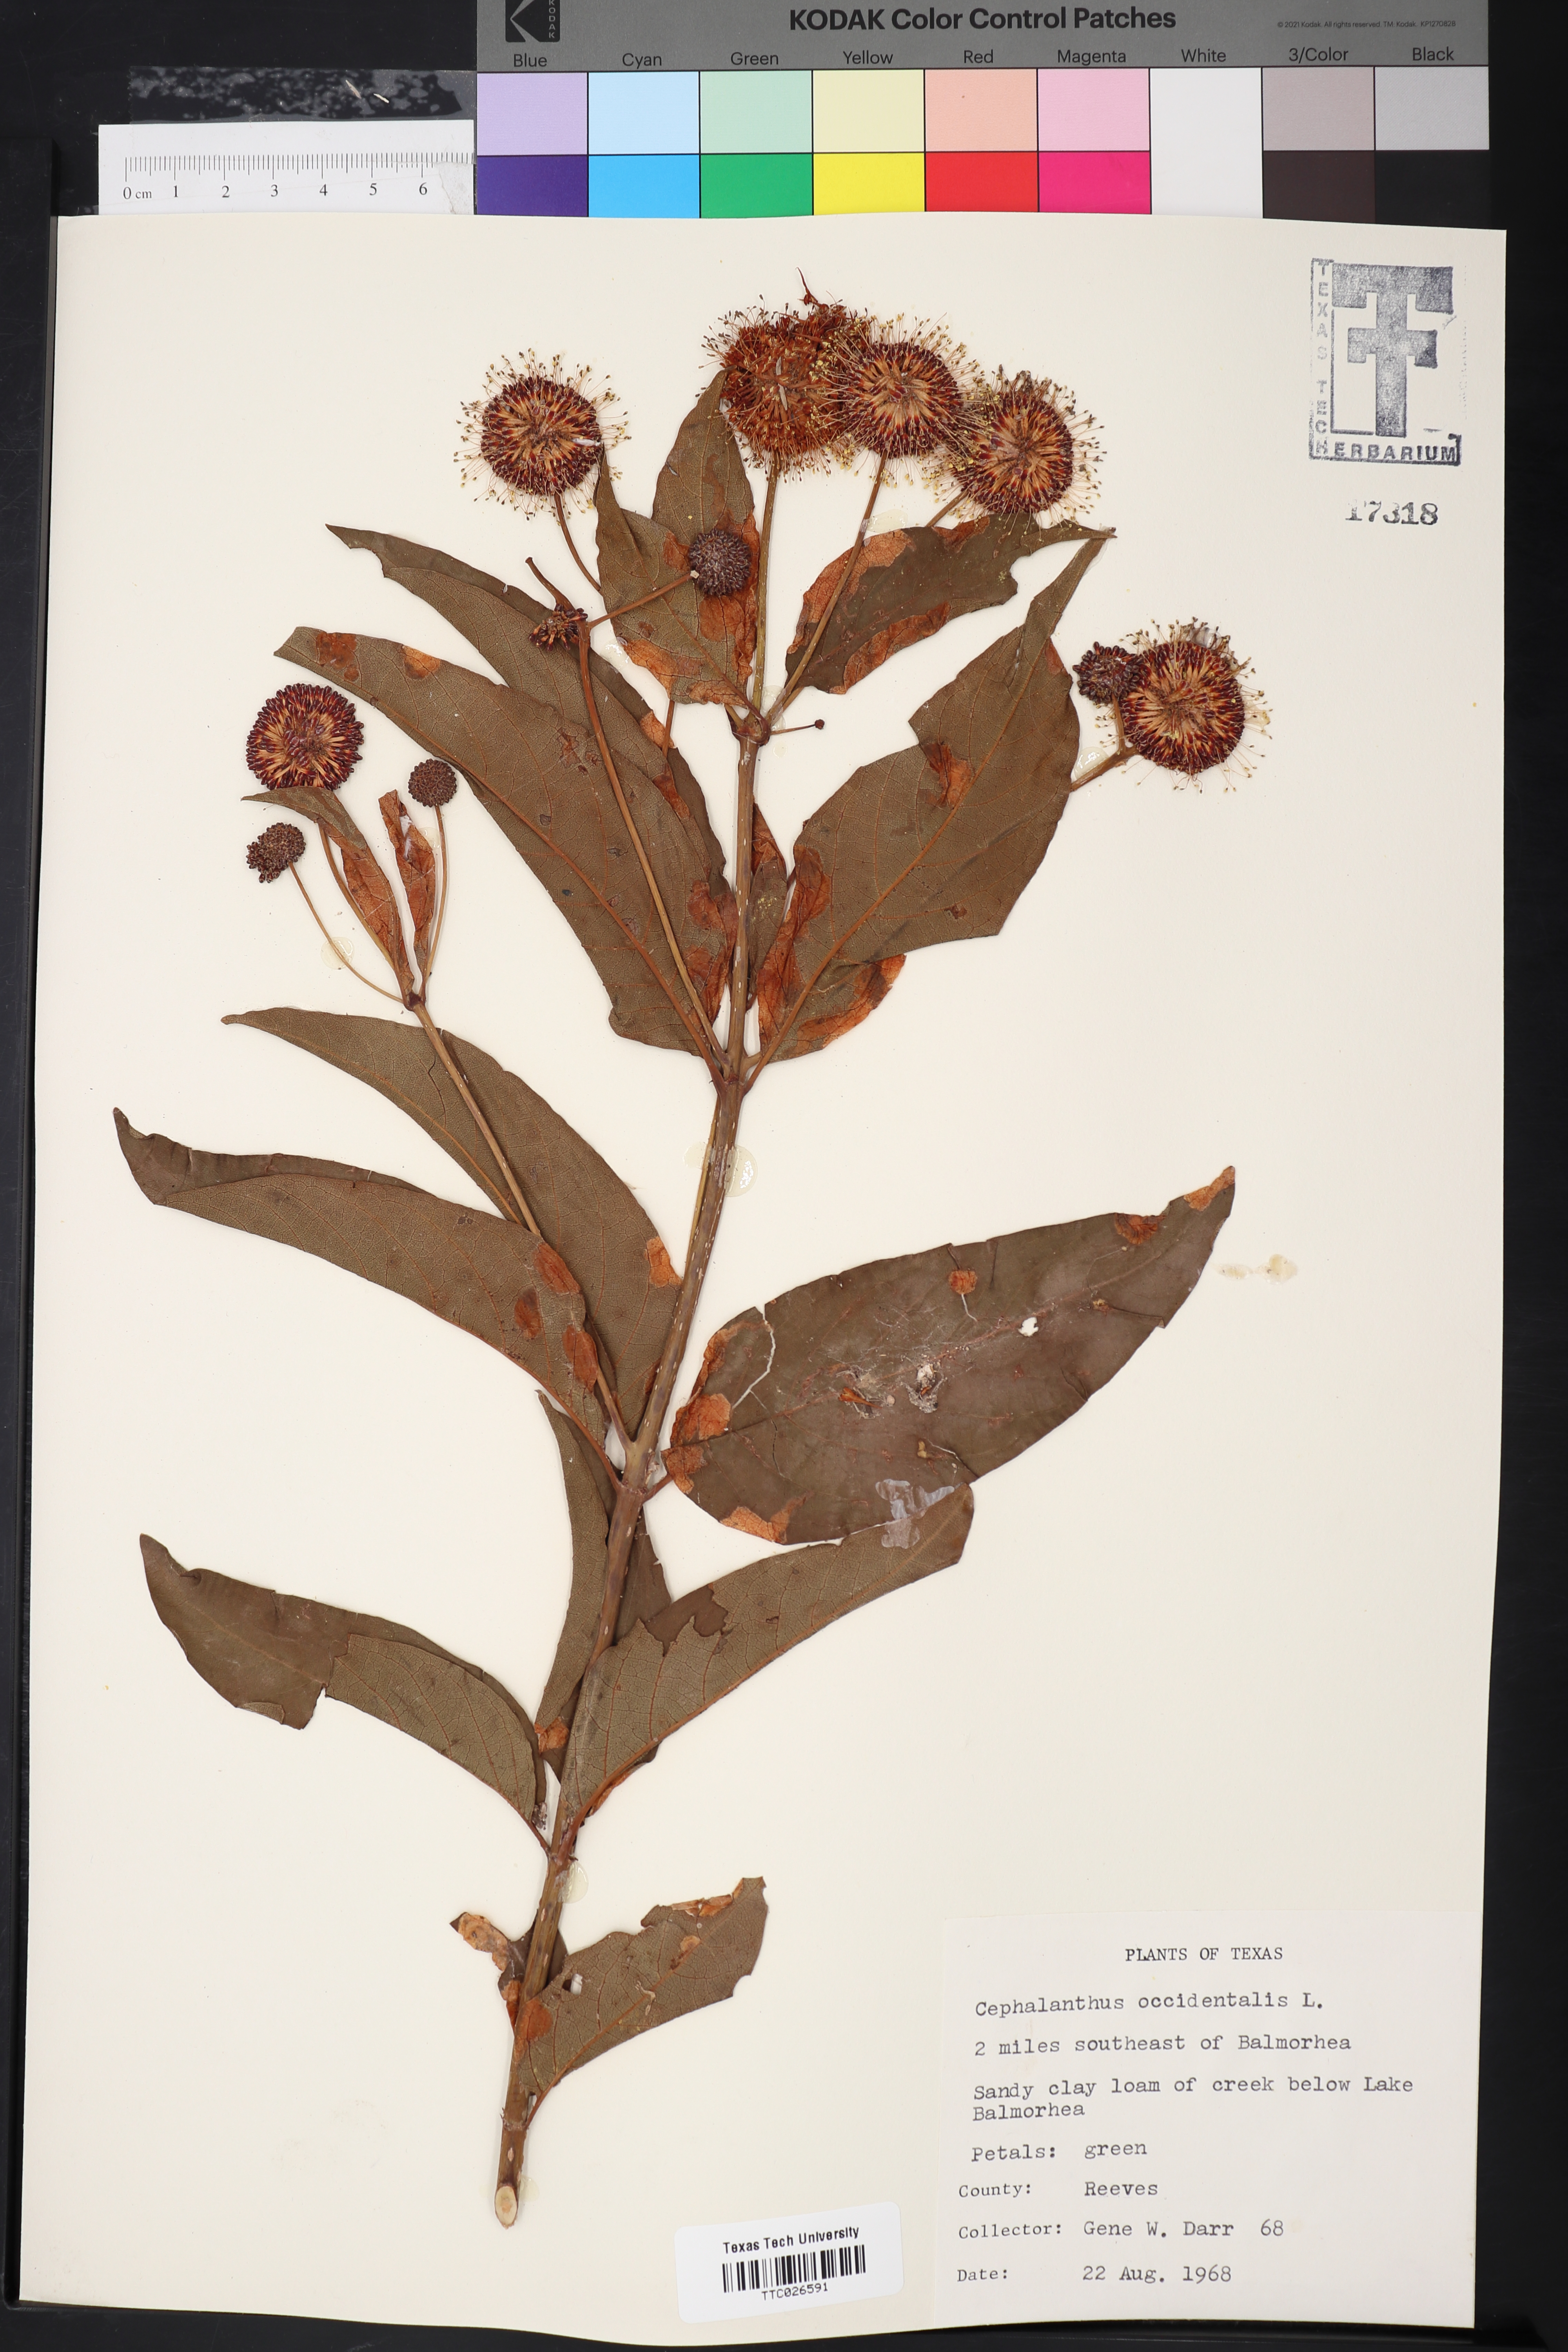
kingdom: Plantae
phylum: Tracheophyta
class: Magnoliopsida
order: Gentianales
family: Rubiaceae
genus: Cephalanthus
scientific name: Cephalanthus occidentalis
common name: Button-willow
